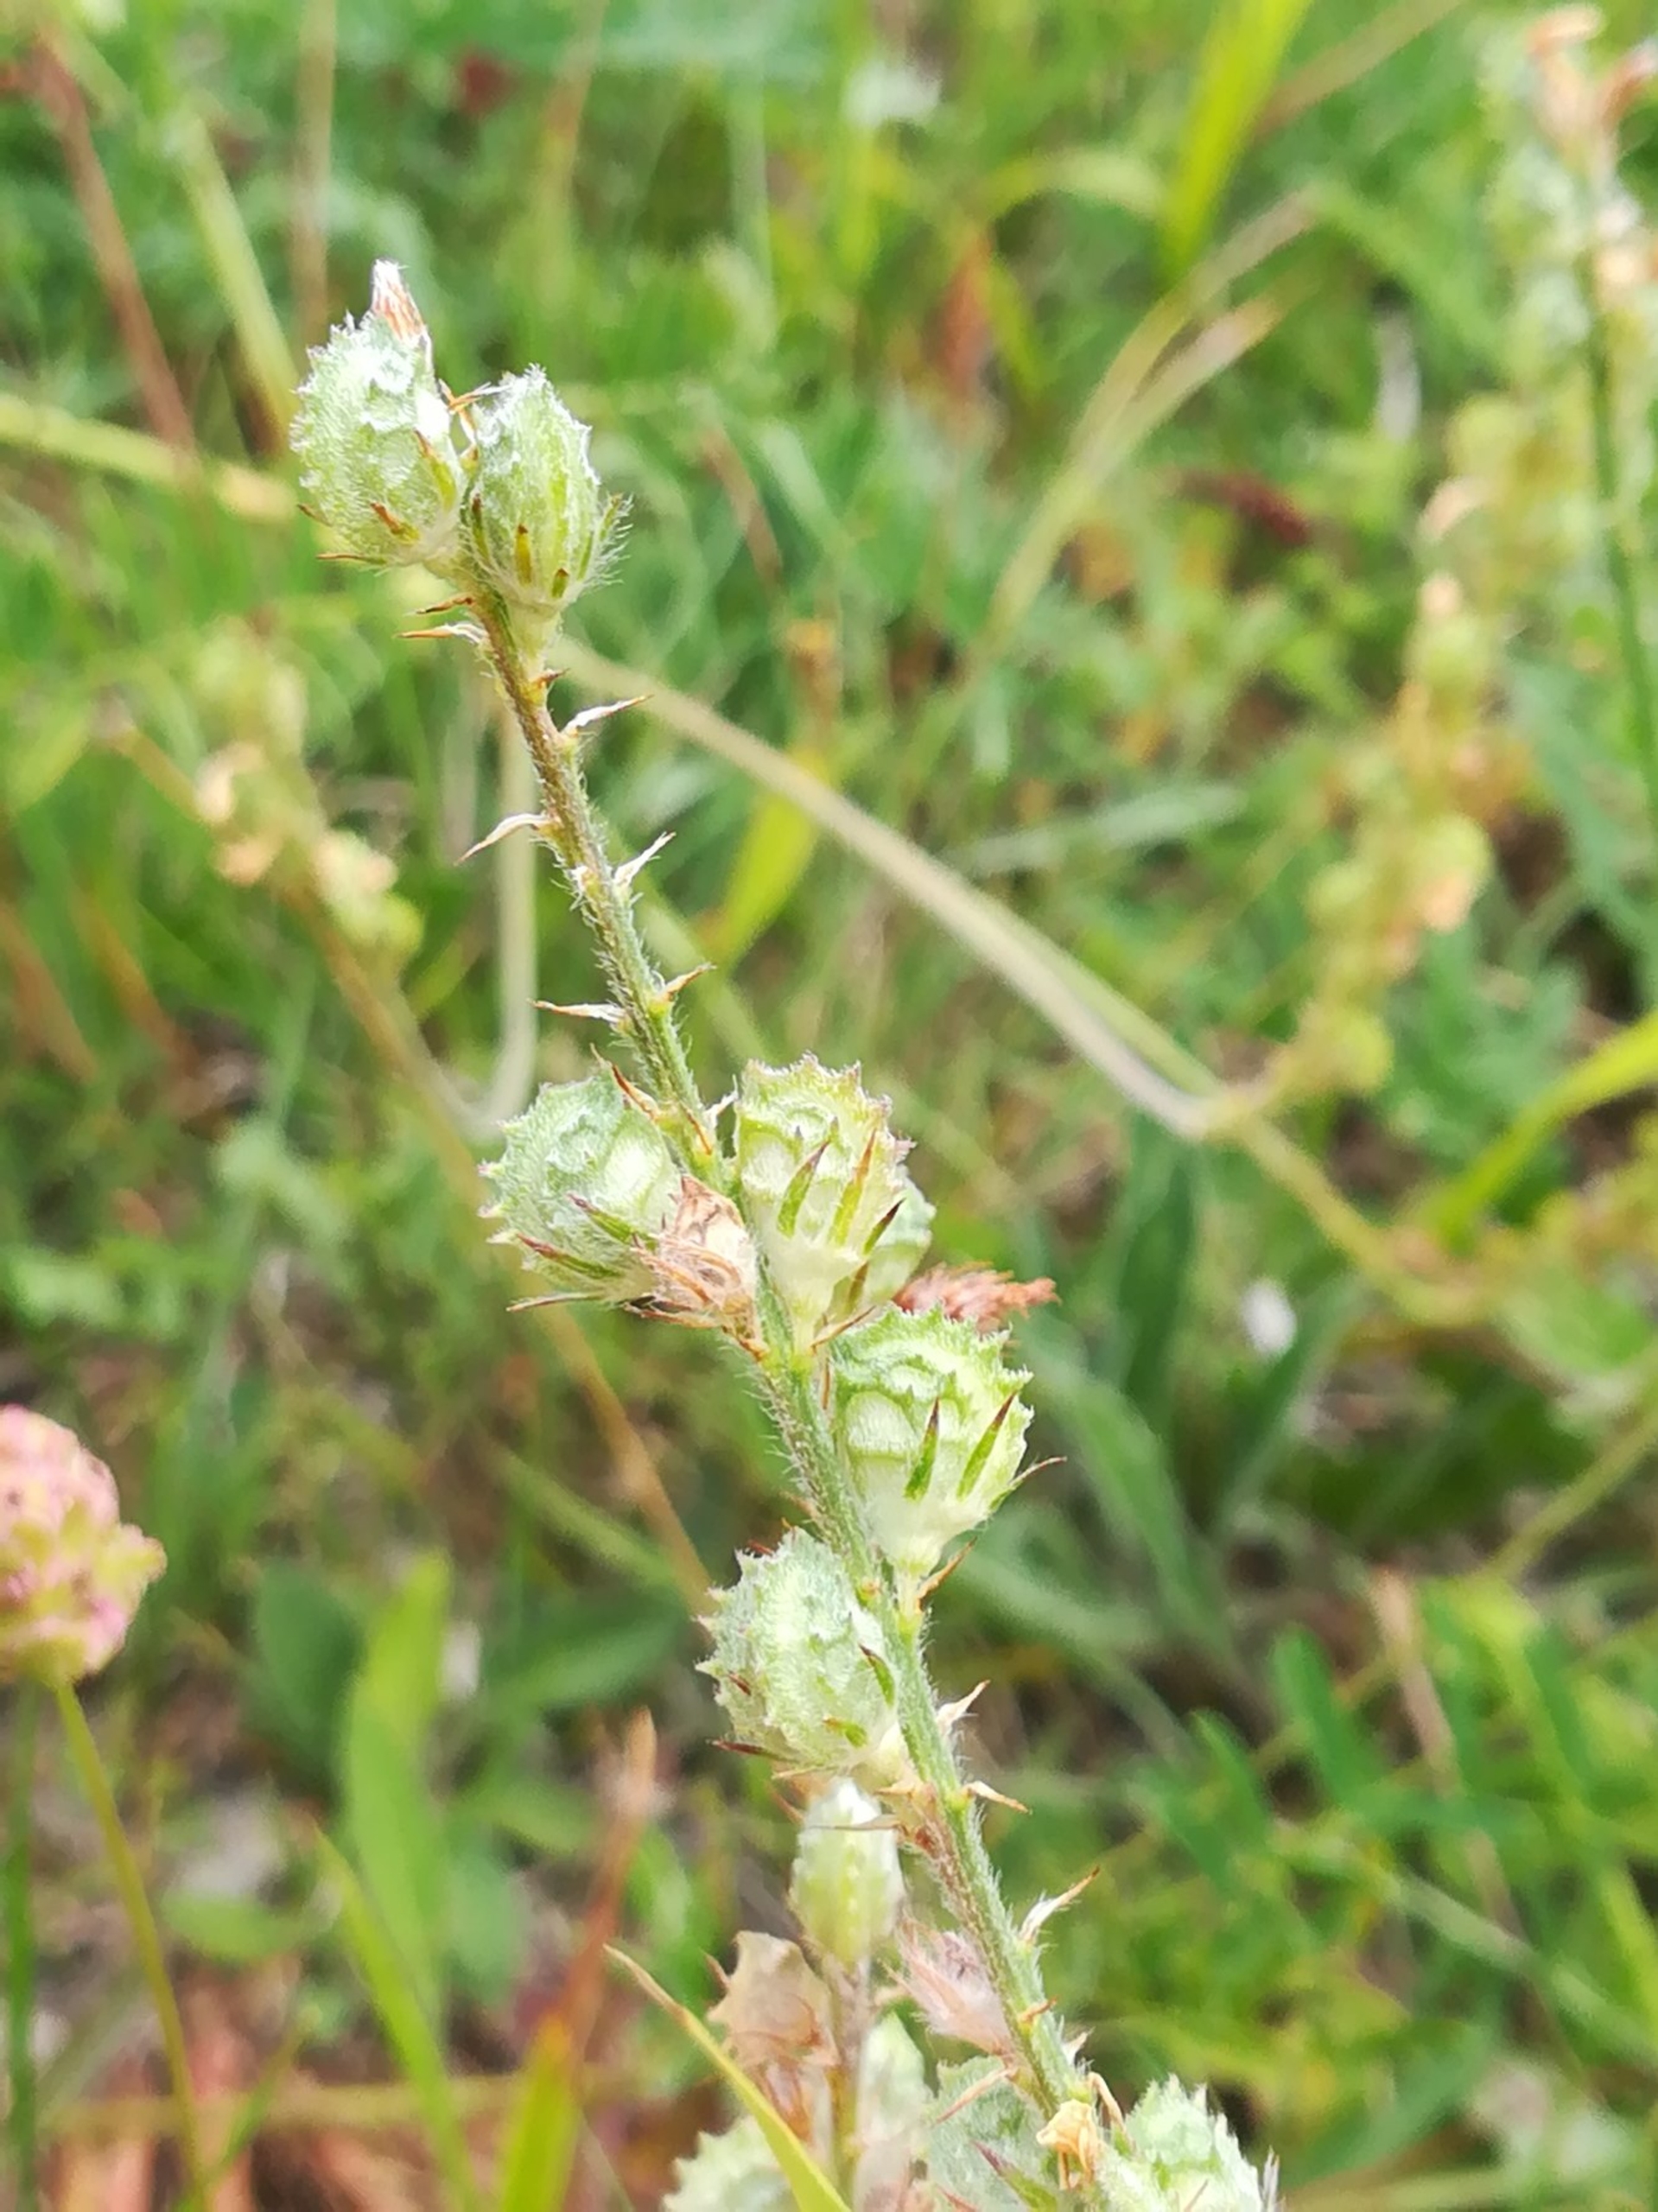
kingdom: Plantae
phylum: Tracheophyta
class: Magnoliopsida
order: Fabales
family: Fabaceae
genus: Onobrychis
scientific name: Onobrychis viciifolia
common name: Esparsette
